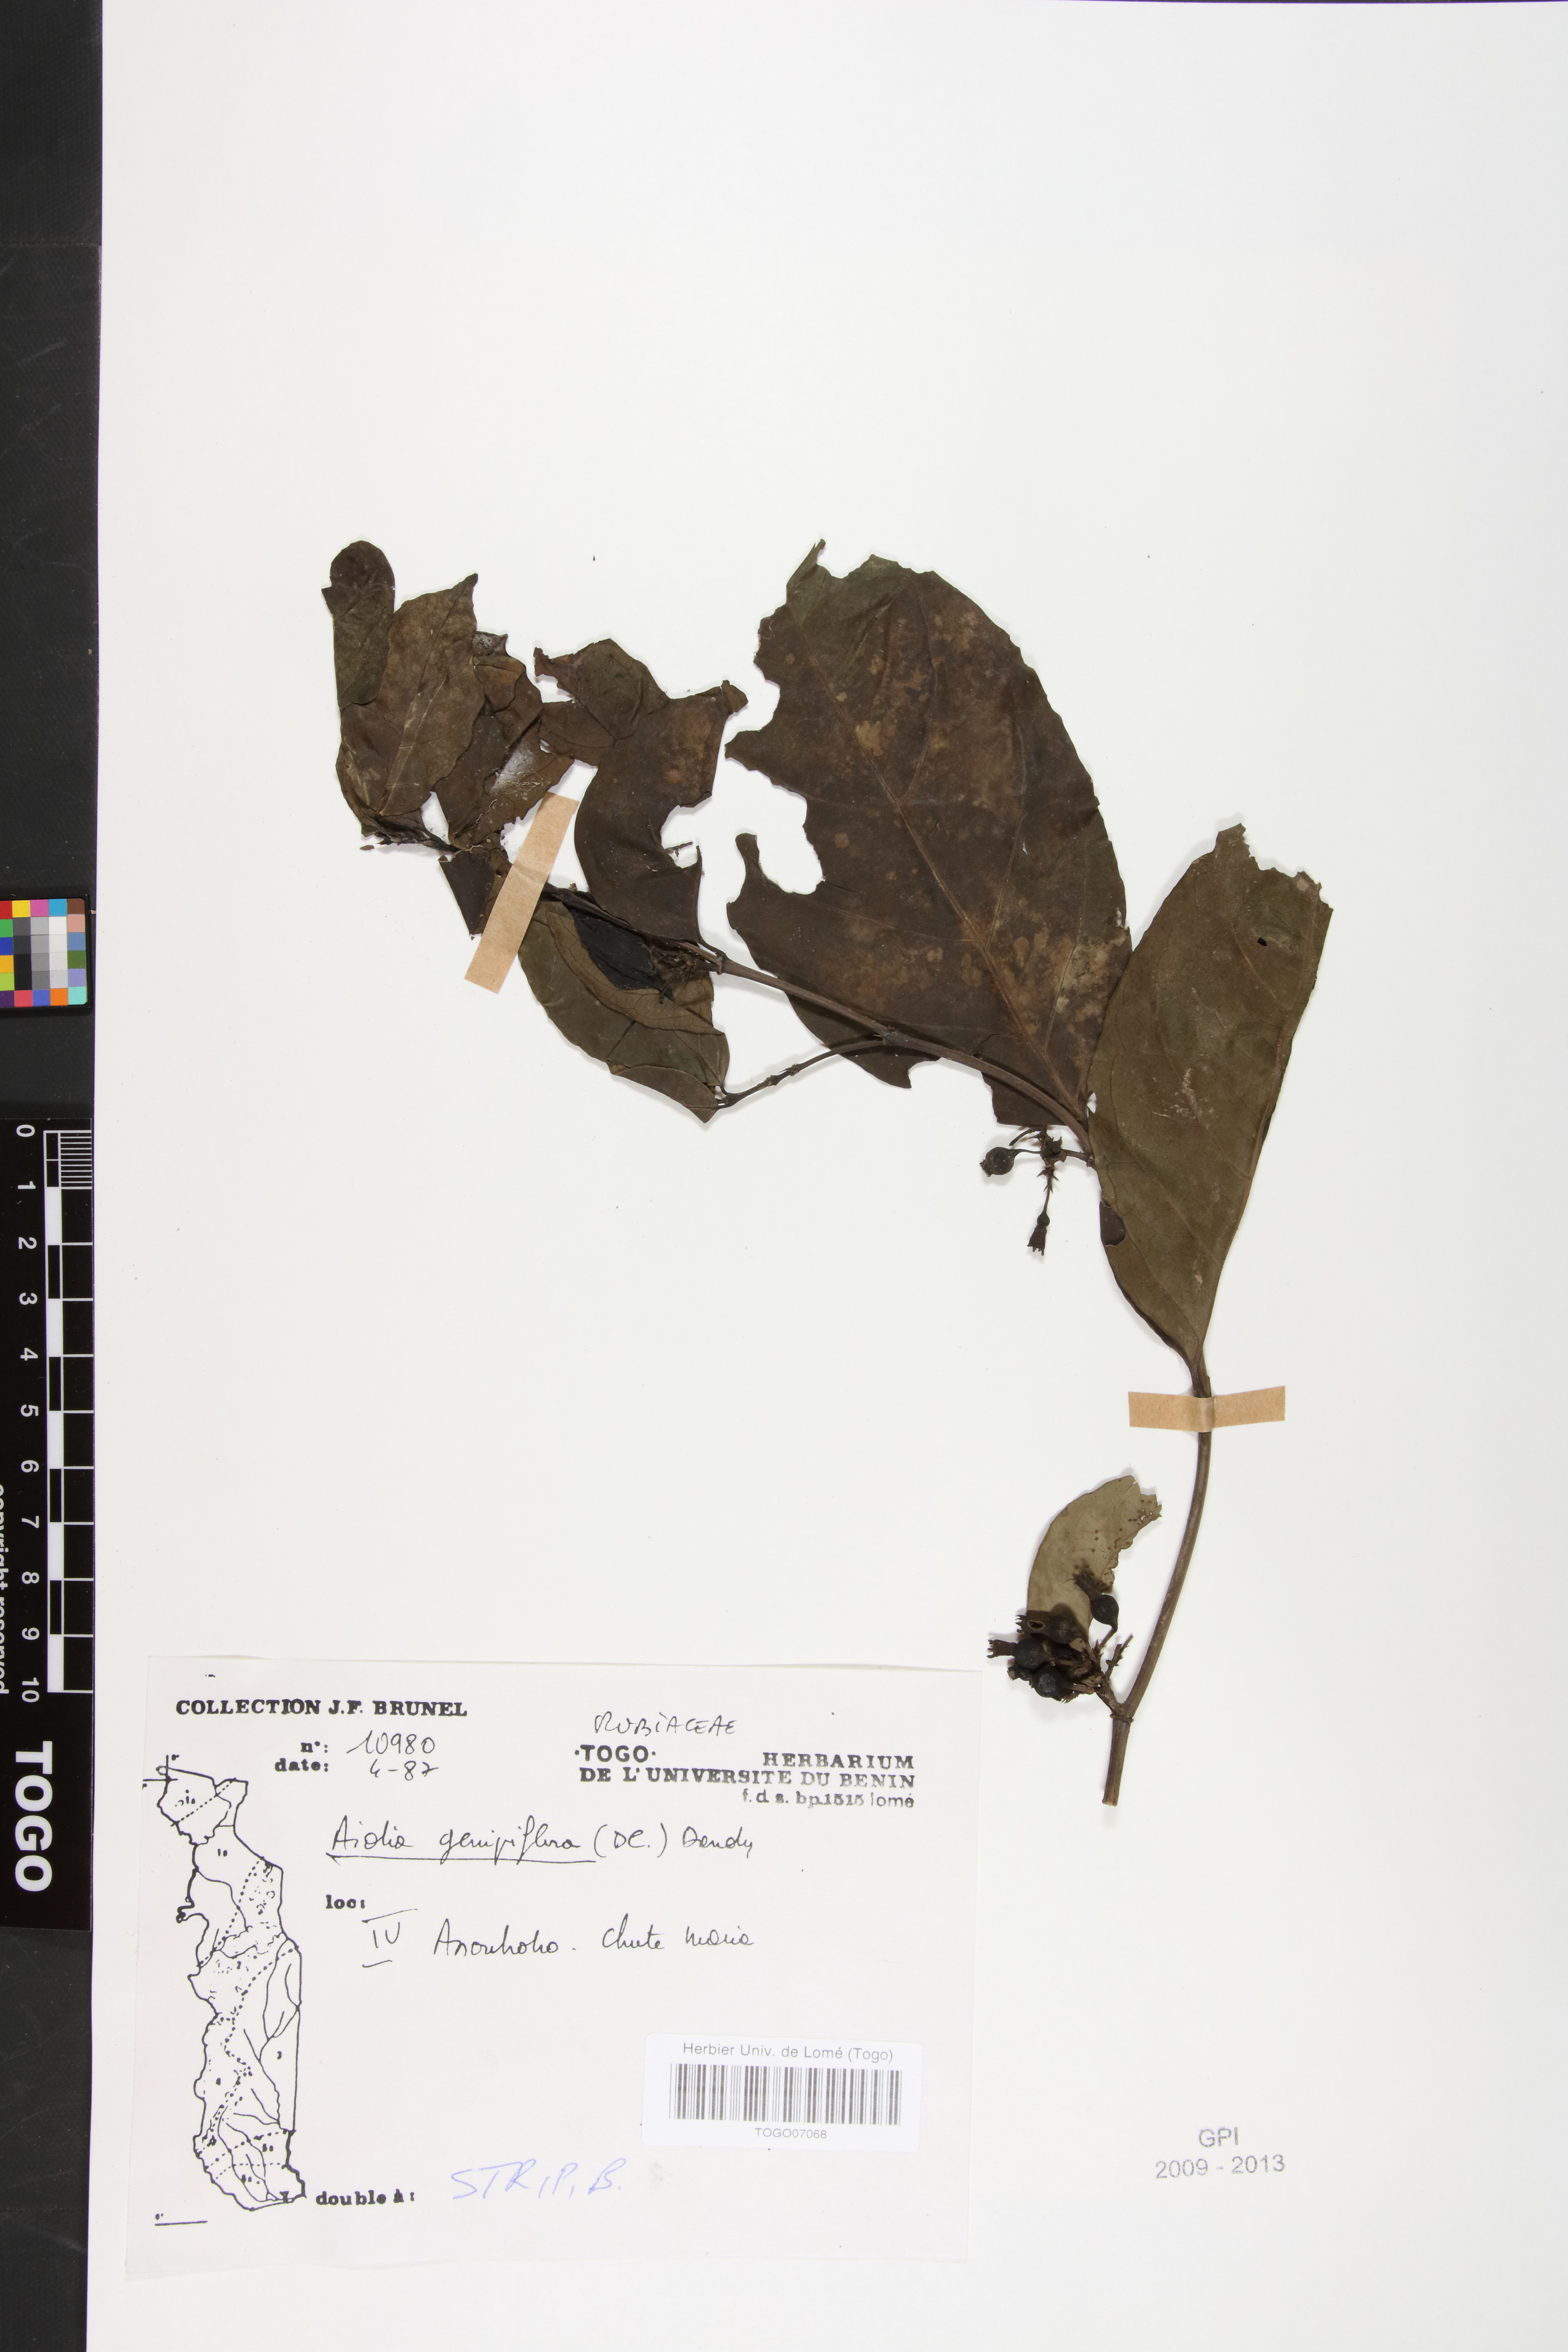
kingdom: Plantae
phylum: Tracheophyta
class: Magnoliopsida
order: Gentianales
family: Rubiaceae
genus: Aidia
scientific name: Aidia genipiflora
